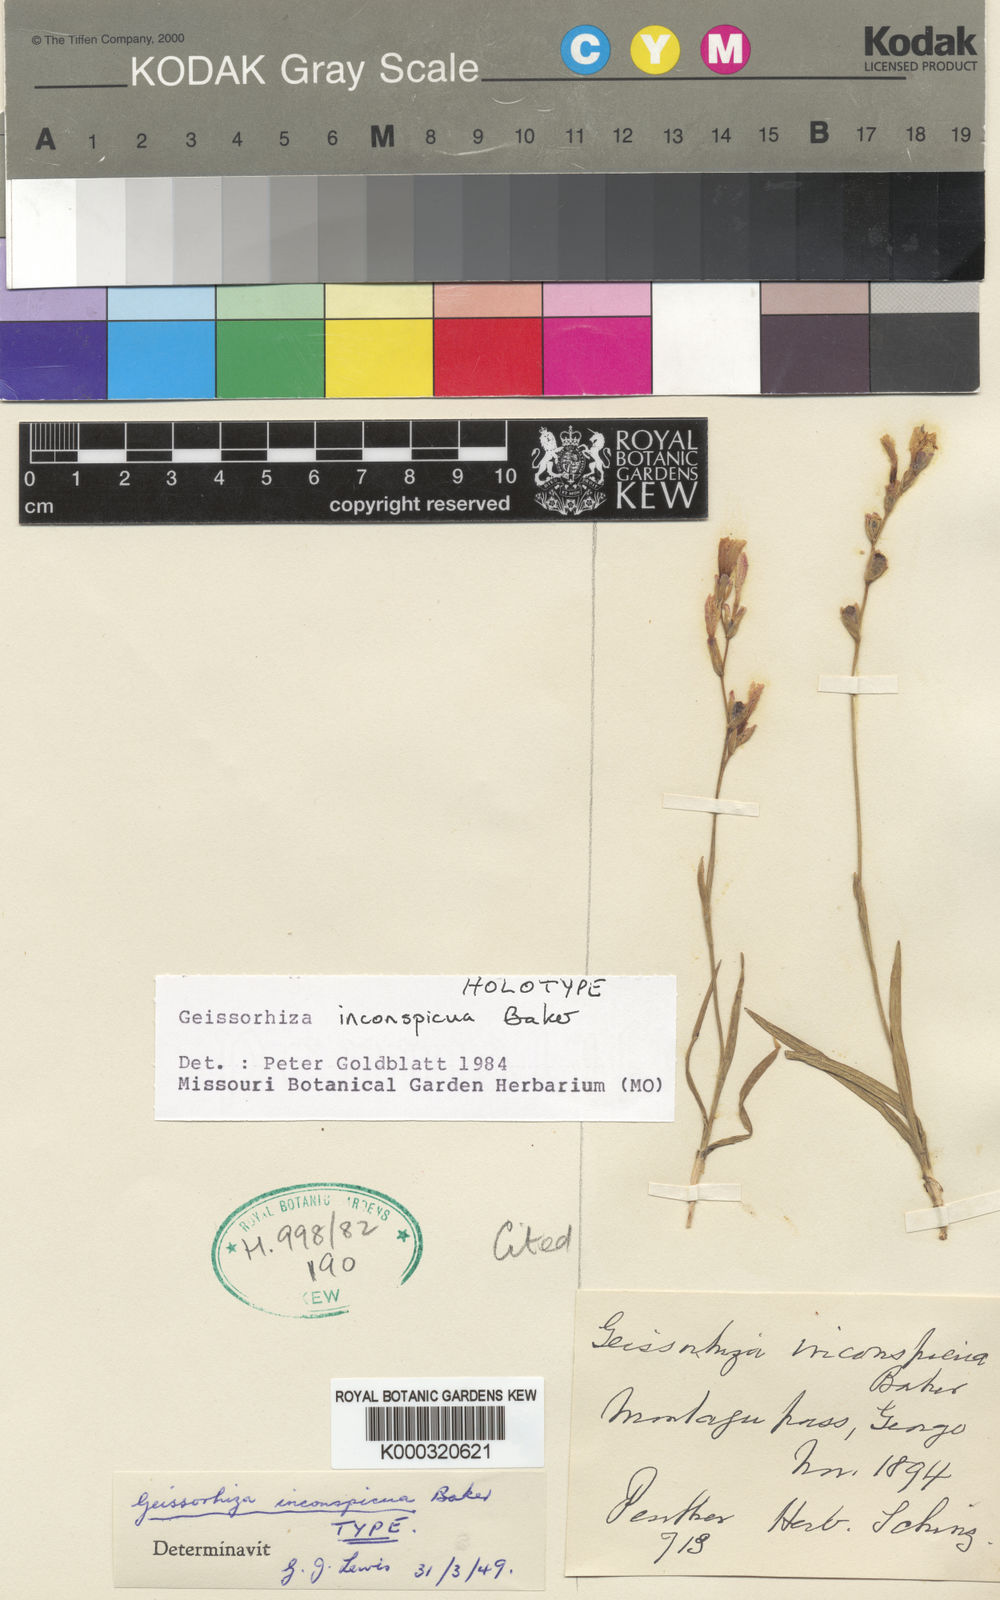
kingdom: Plantae
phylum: Tracheophyta
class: Liliopsida
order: Asparagales
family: Iridaceae
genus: Geissorhiza
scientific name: Geissorhiza inconspicua
